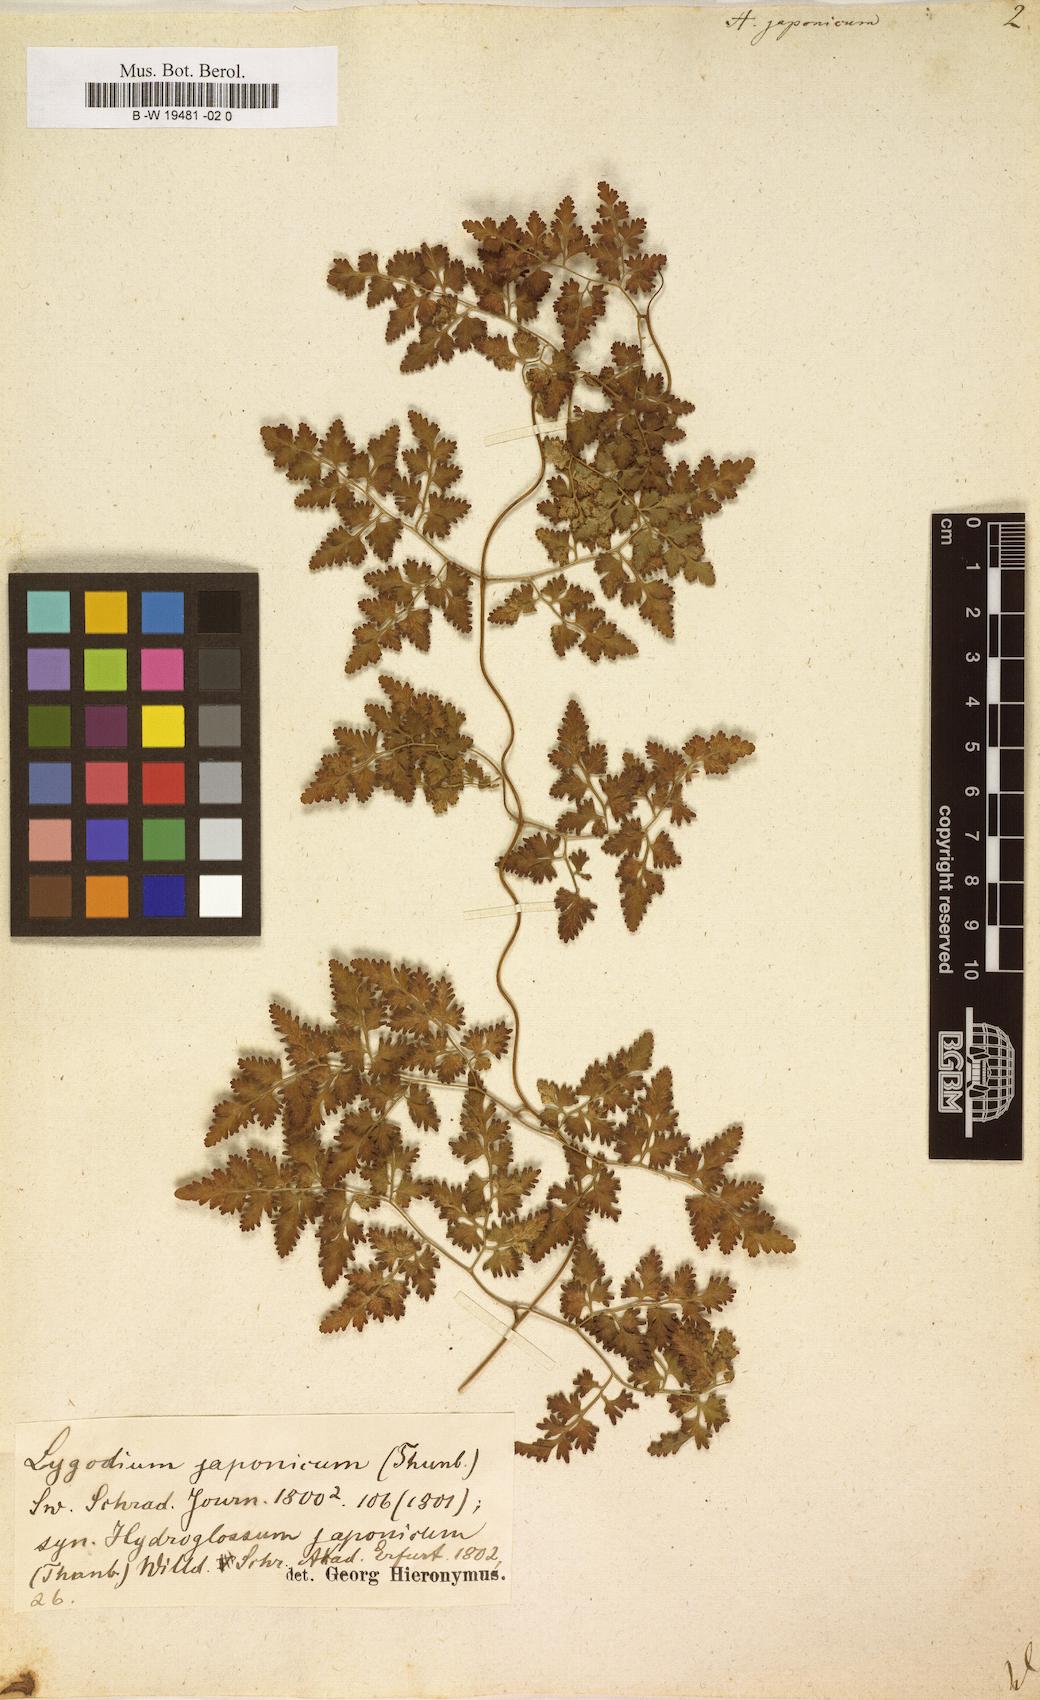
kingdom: Plantae
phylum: Tracheophyta
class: Polypodiopsida
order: Schizaeales
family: Lygodiaceae
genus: Lygodium
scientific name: Lygodium japonicum
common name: Japanese climbing fern
